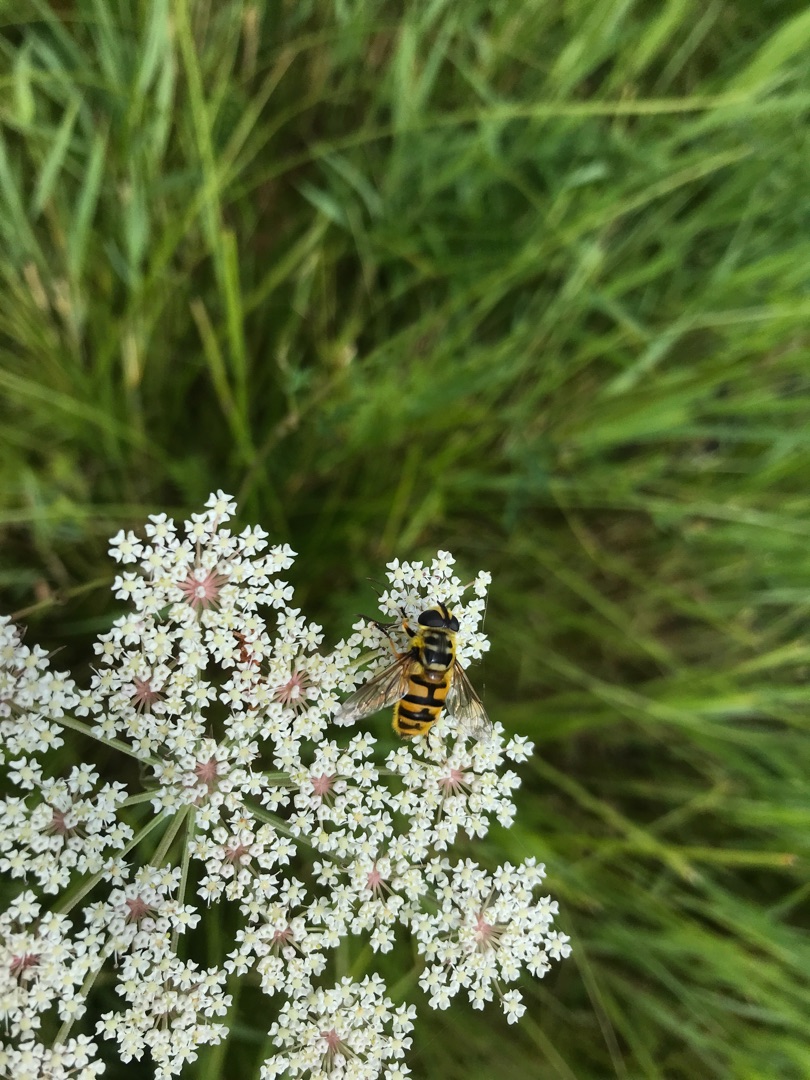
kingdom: Animalia
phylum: Arthropoda
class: Insecta
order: Diptera
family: Syrphidae
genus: Myathropa
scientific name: Myathropa florea
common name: Dødningehoved-svirreflue
